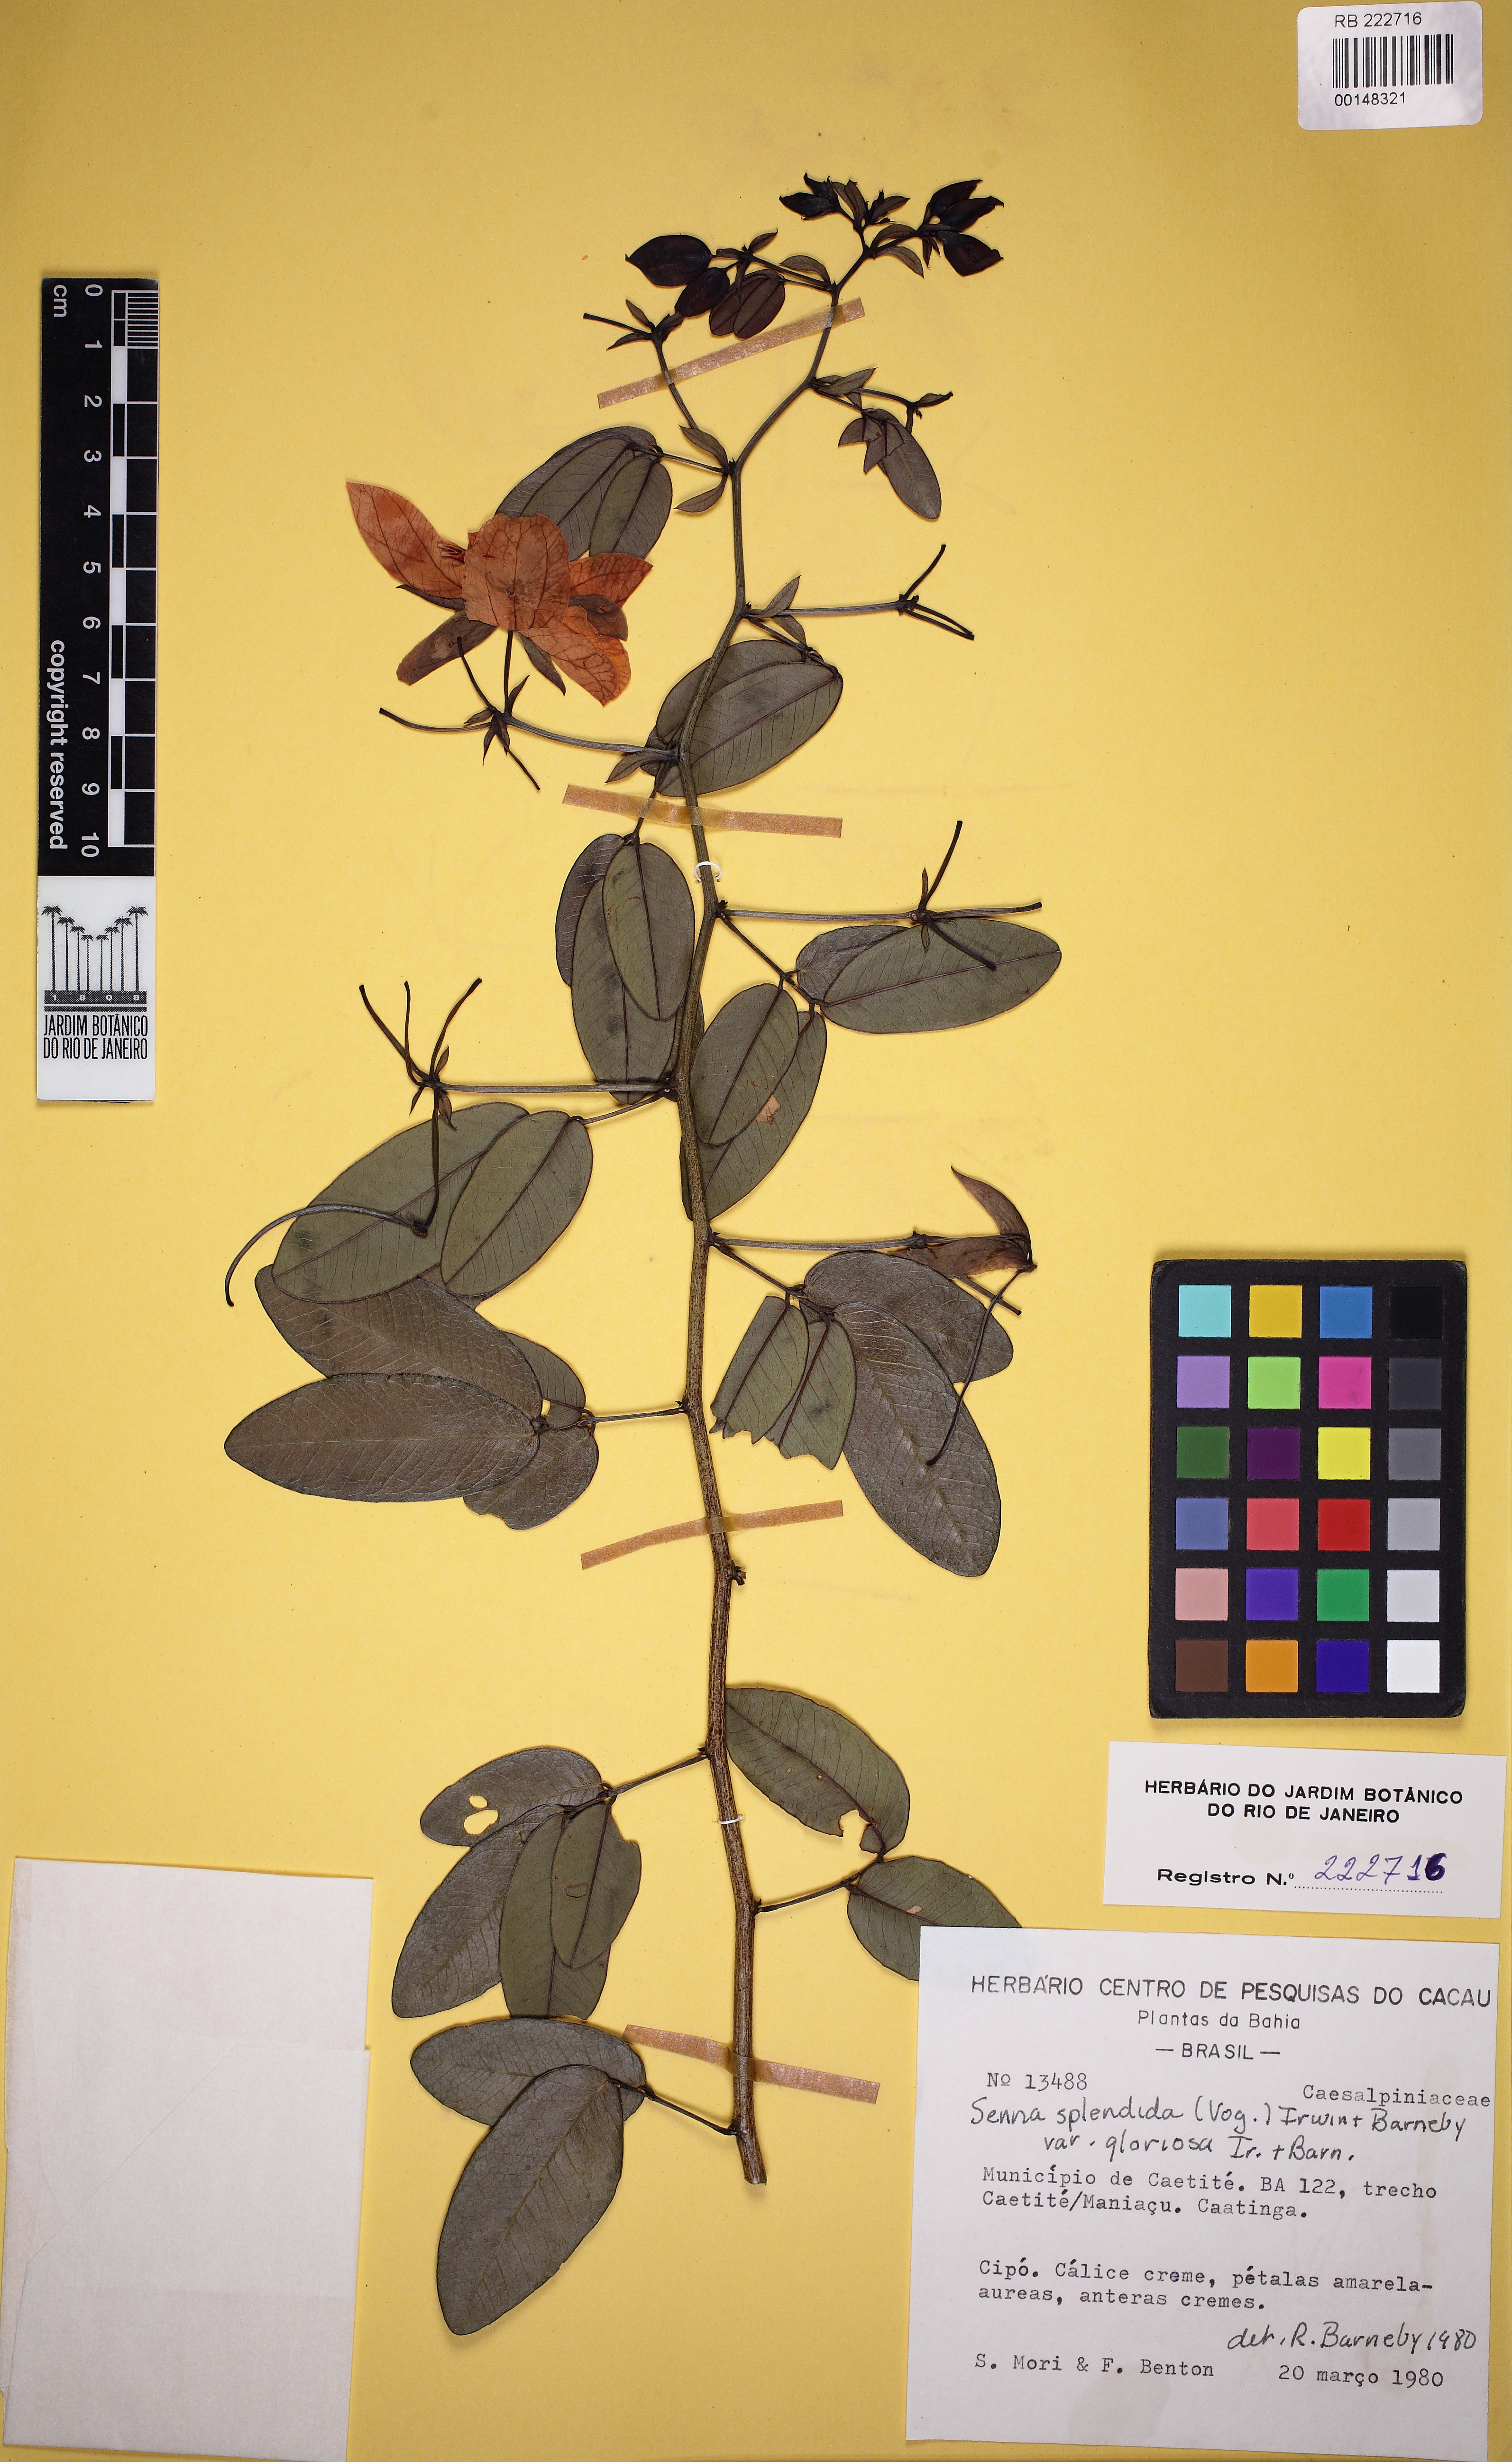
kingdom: Plantae
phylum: Tracheophyta
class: Magnoliopsida
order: Fabales
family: Fabaceae
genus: Senna
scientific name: Senna splendida
